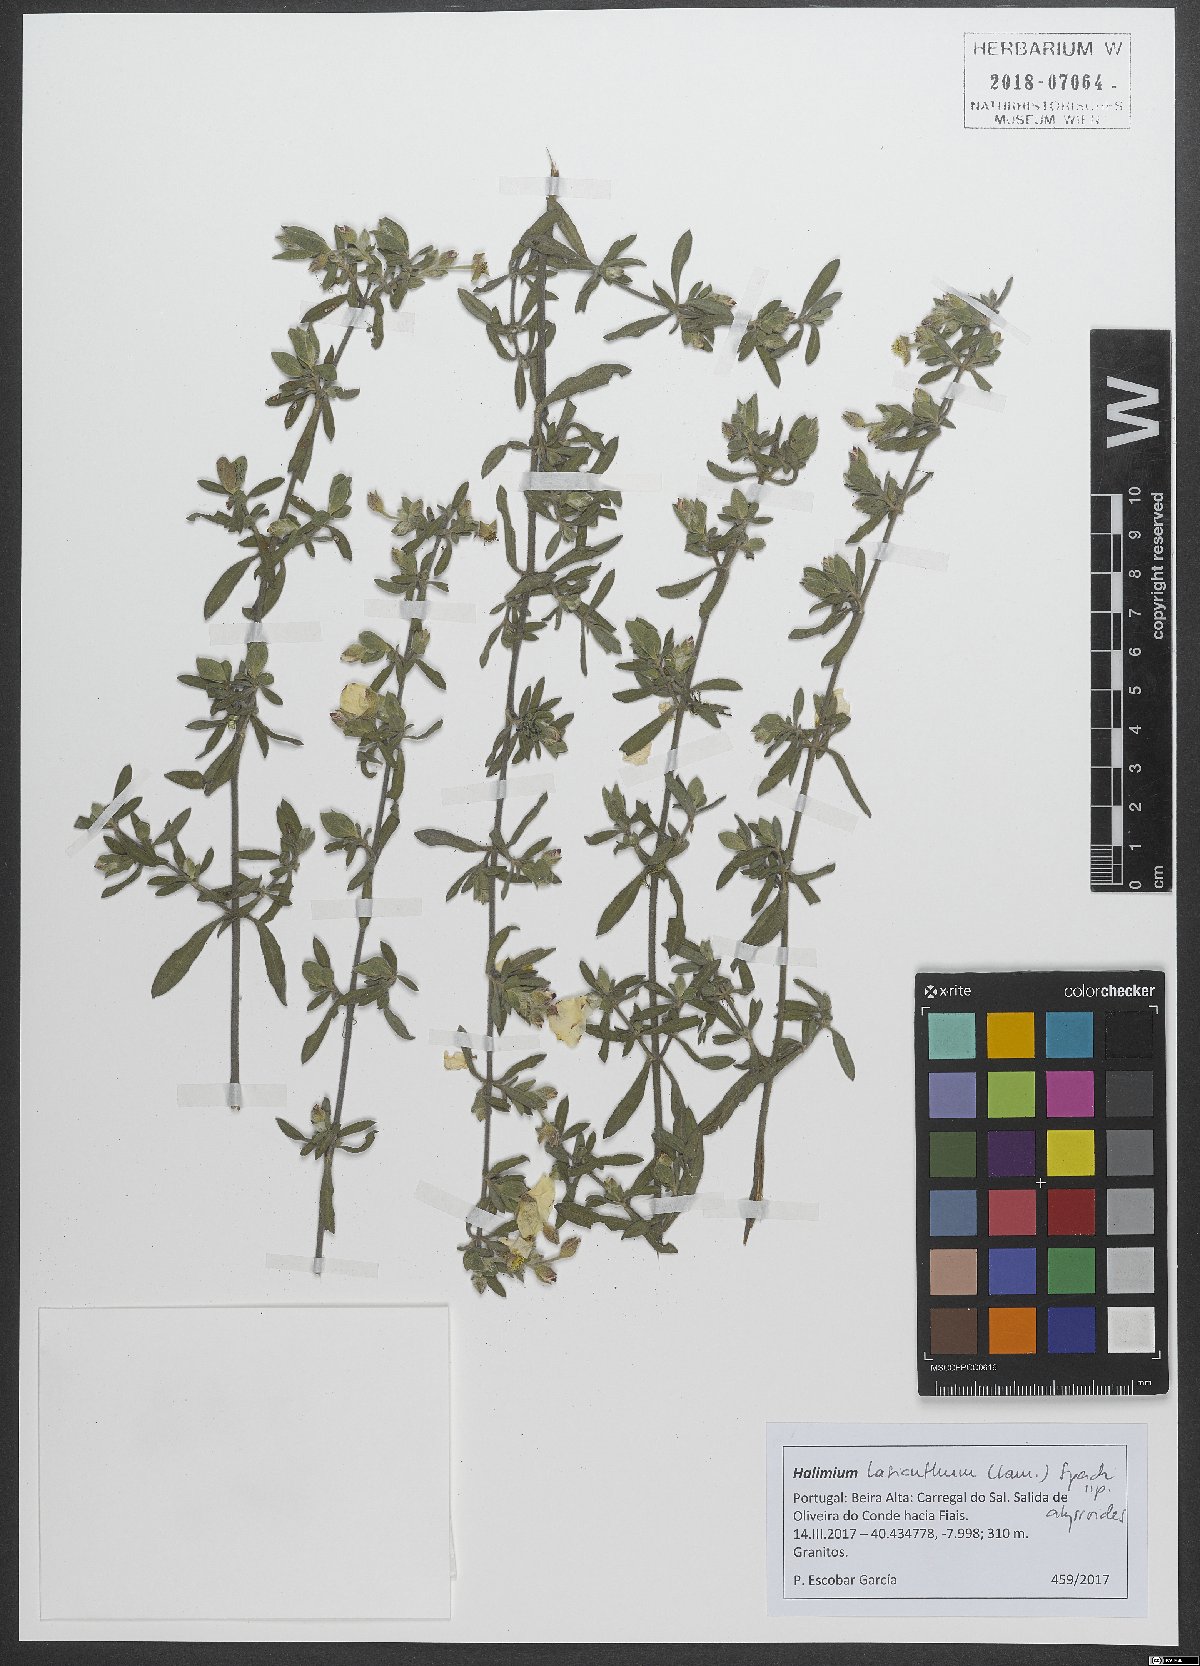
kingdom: Plantae
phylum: Tracheophyta
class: Magnoliopsida
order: Malvales
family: Cistaceae
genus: Halimium
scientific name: Halimium lasianthum
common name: Lisbon false sun-rose
